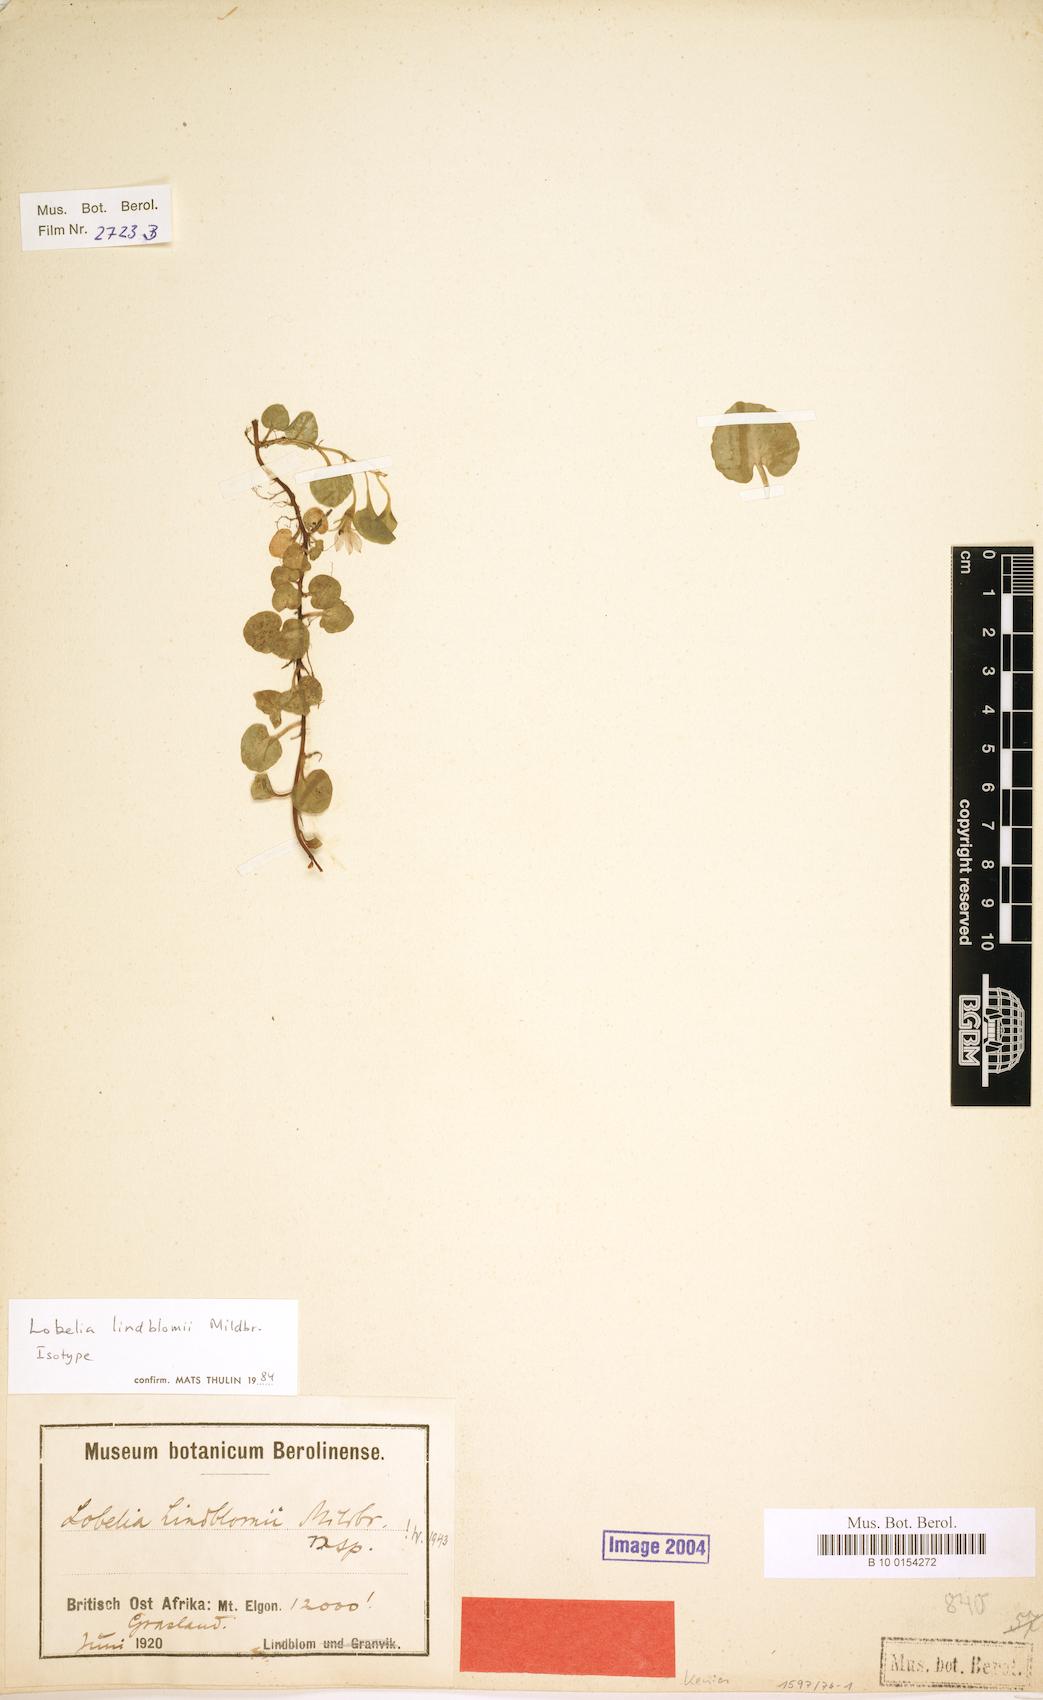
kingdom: Plantae
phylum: Tracheophyta
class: Magnoliopsida
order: Asterales
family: Campanulaceae
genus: Lobelia
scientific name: Lobelia lindblomii
